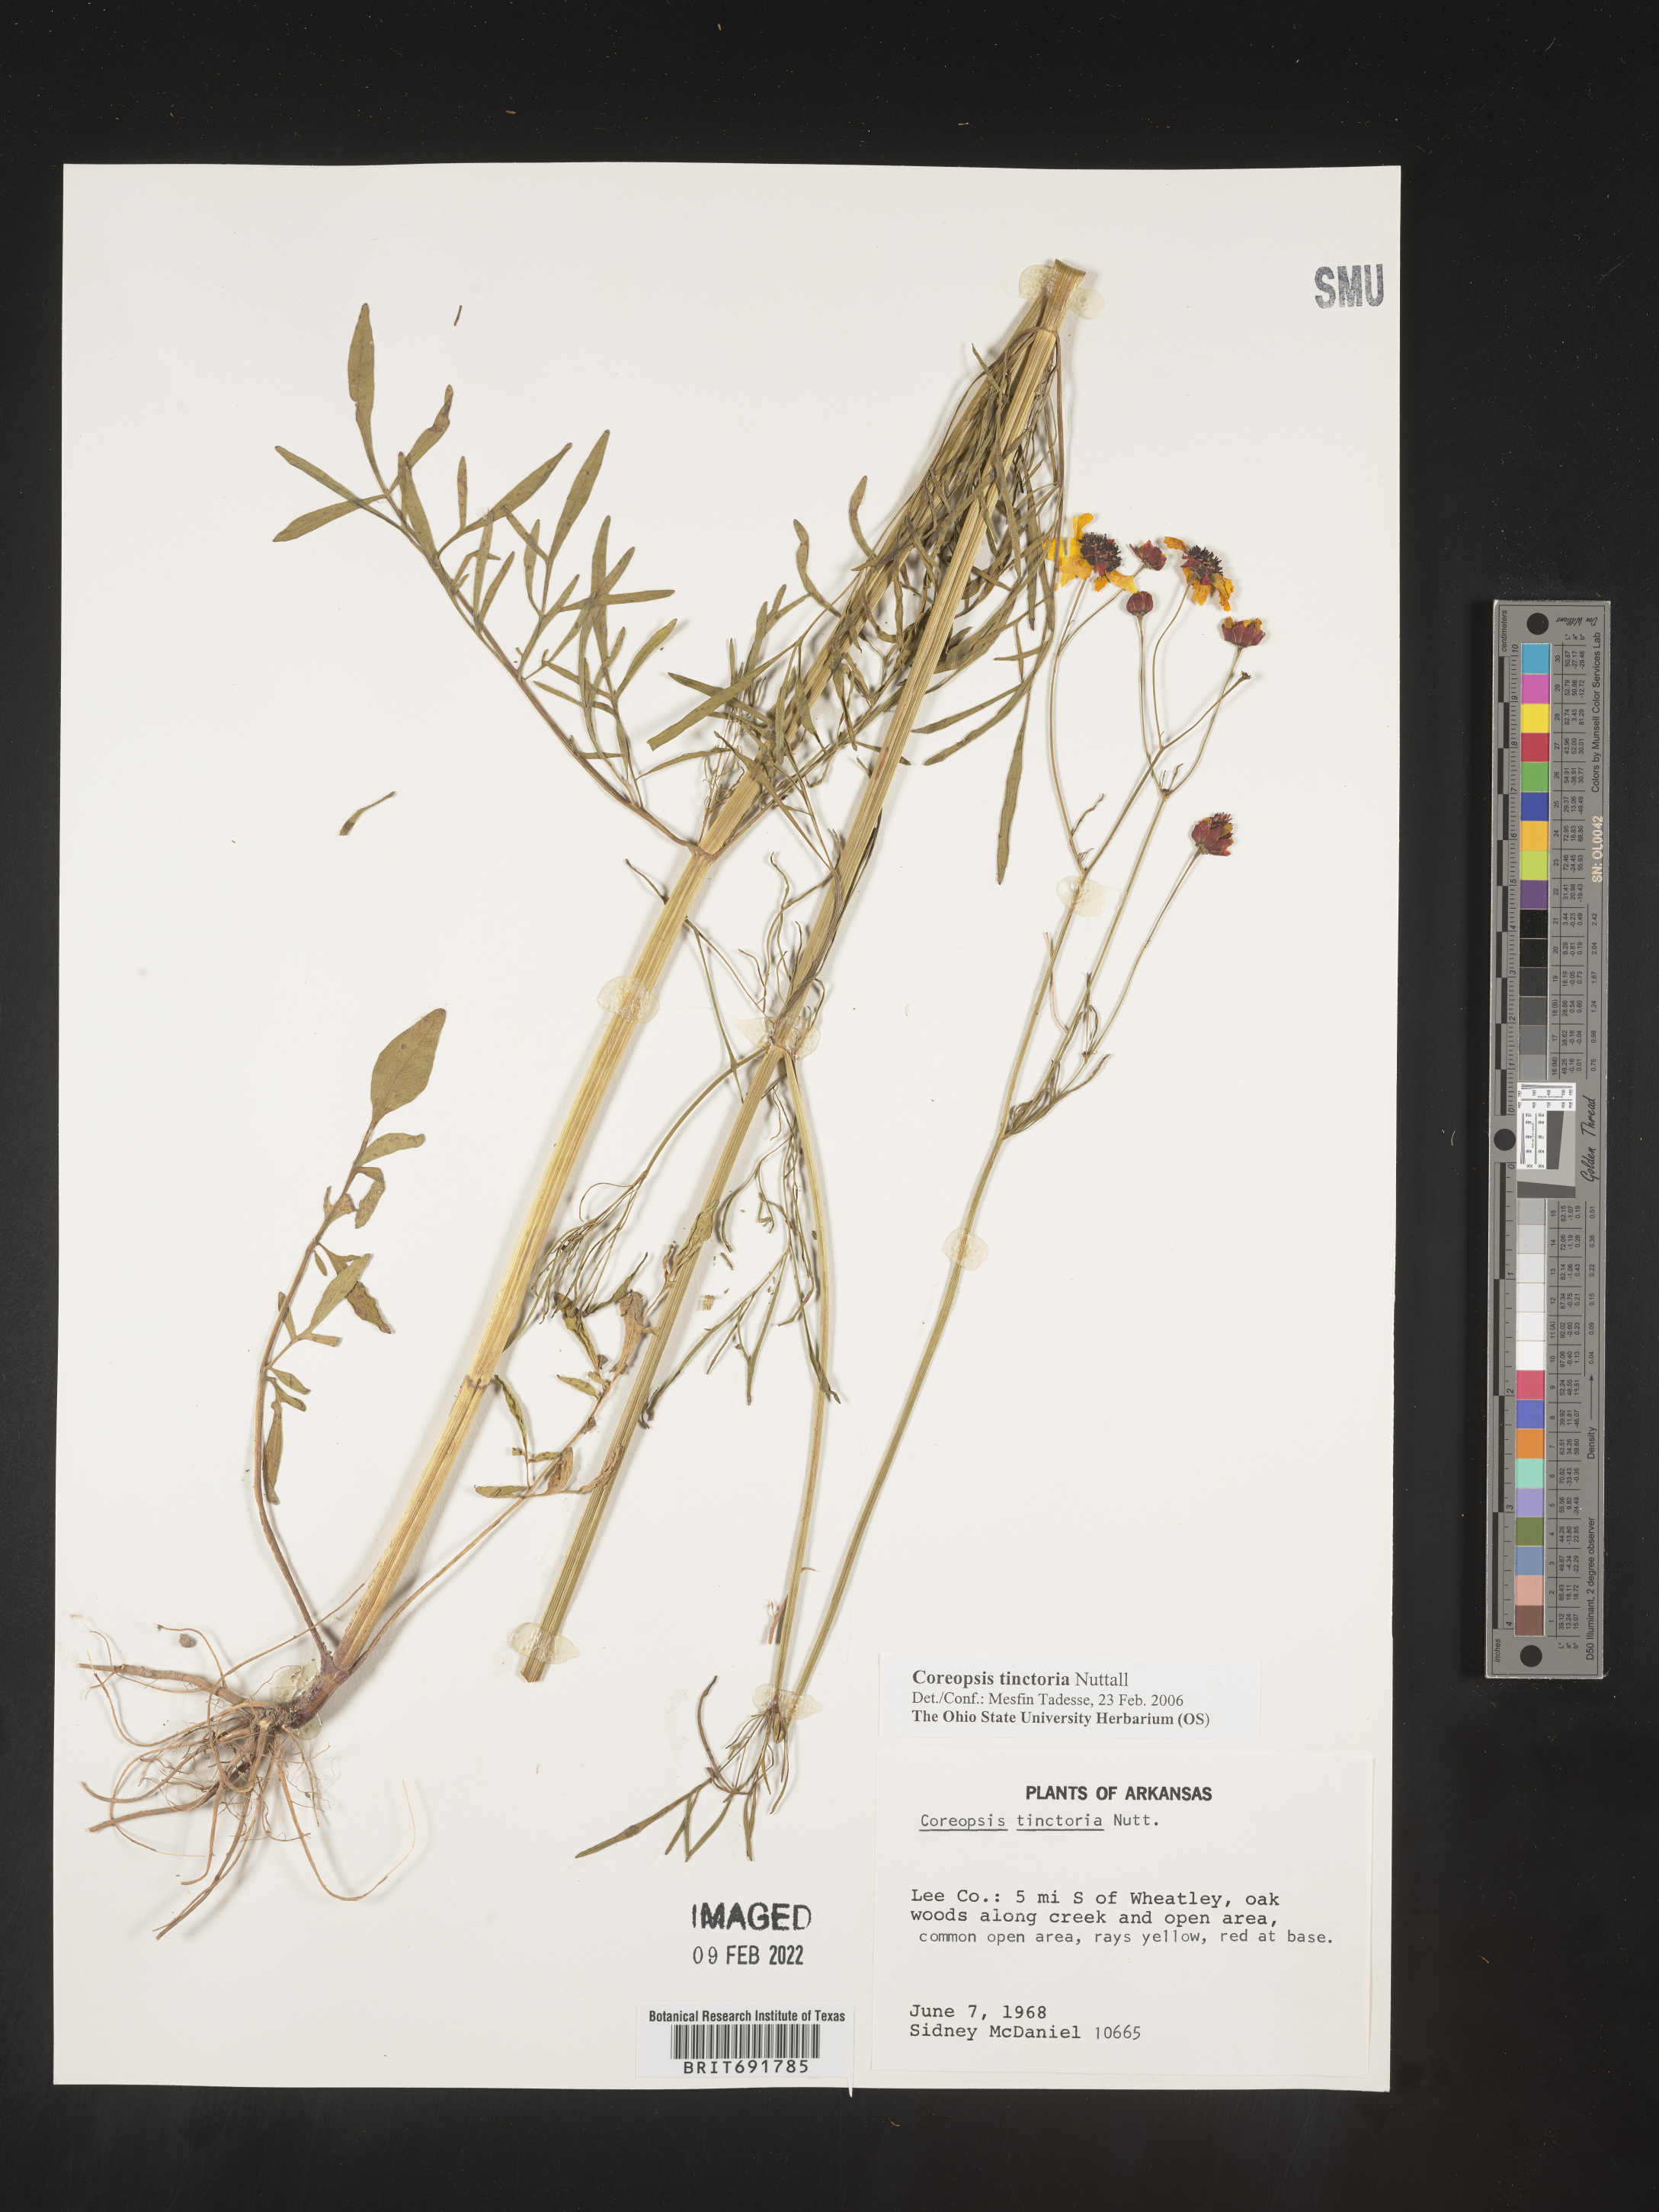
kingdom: Plantae
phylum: Tracheophyta
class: Magnoliopsida
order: Asterales
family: Asteraceae
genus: Coreopsis
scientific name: Coreopsis tinctoria
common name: Garden tickseed
